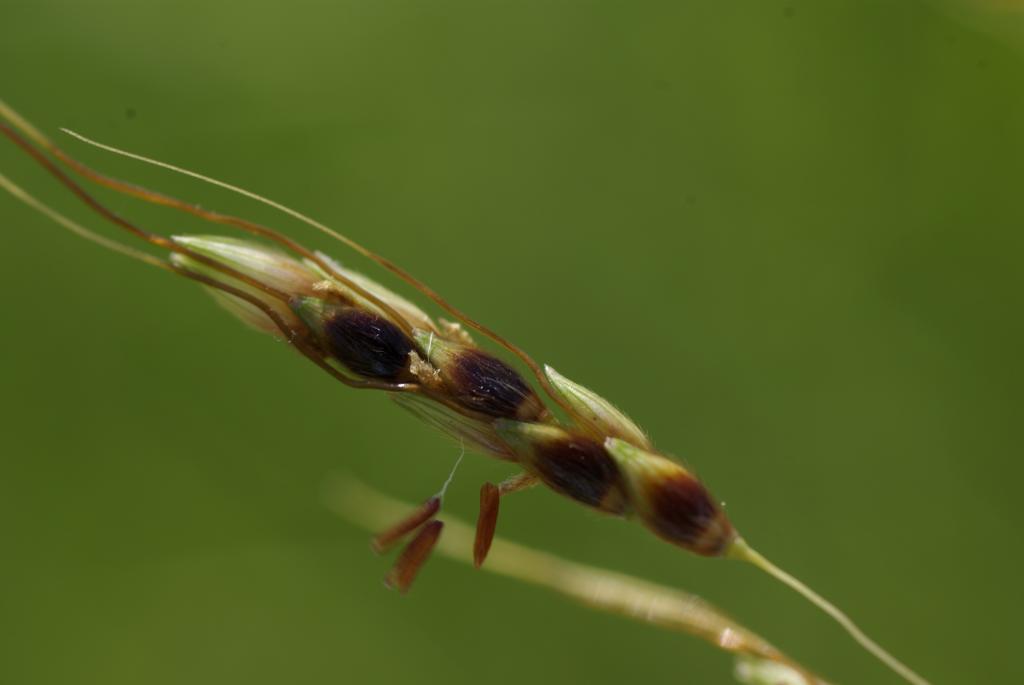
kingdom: Plantae
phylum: Tracheophyta
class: Liliopsida
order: Poales
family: Poaceae
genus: Sorghum
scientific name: Sorghum nitidum
